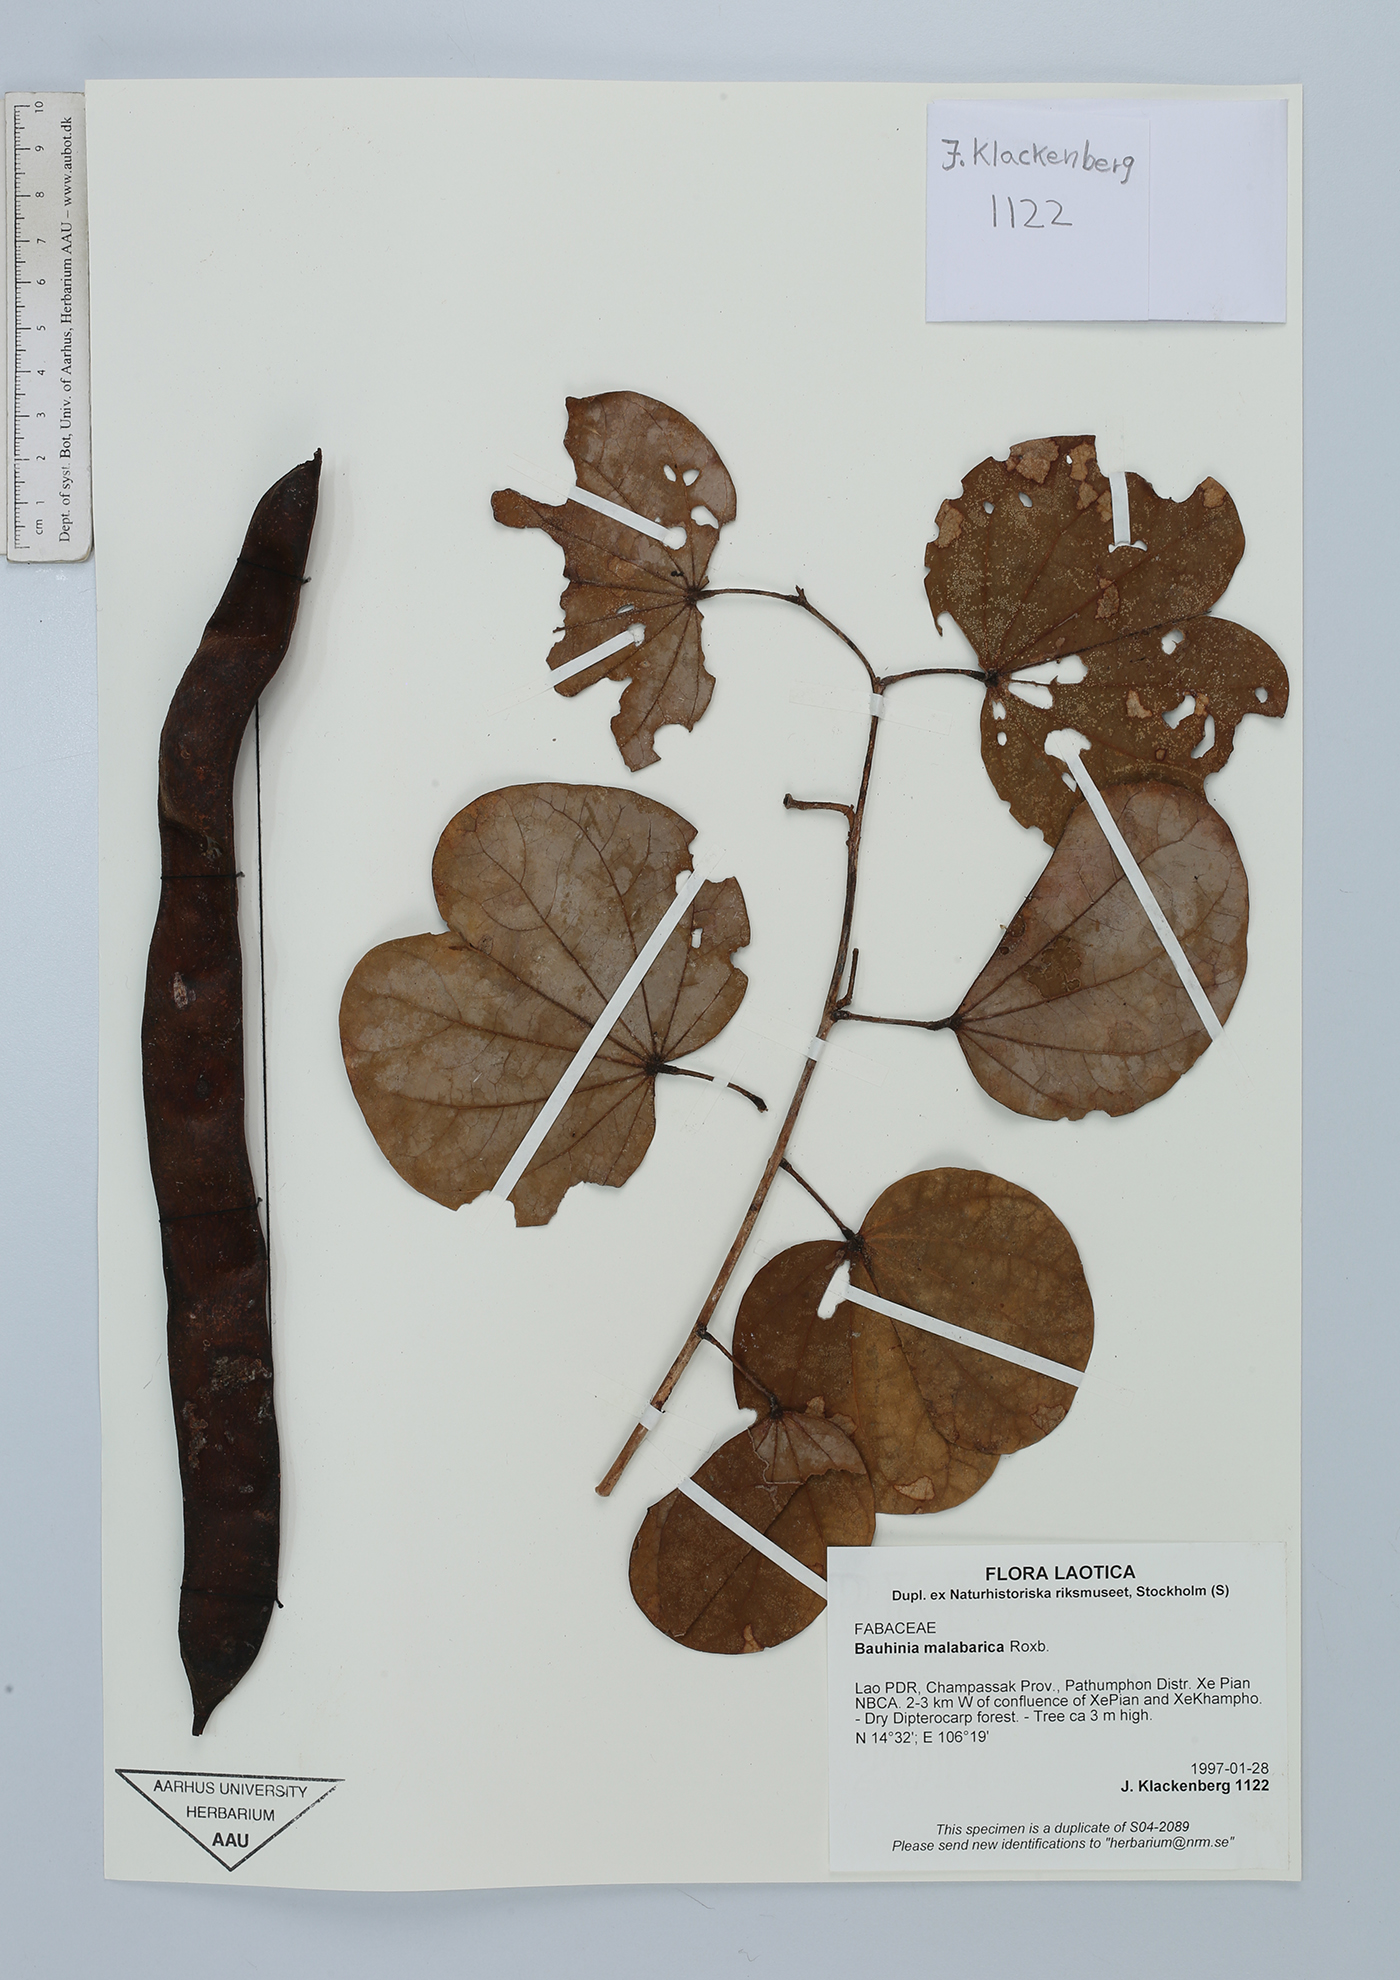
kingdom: Plantae
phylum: Tracheophyta
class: Magnoliopsida
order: Fabales
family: Fabaceae
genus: Piliostigma
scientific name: Piliostigma malabaricum
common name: Malabar bauhinia
